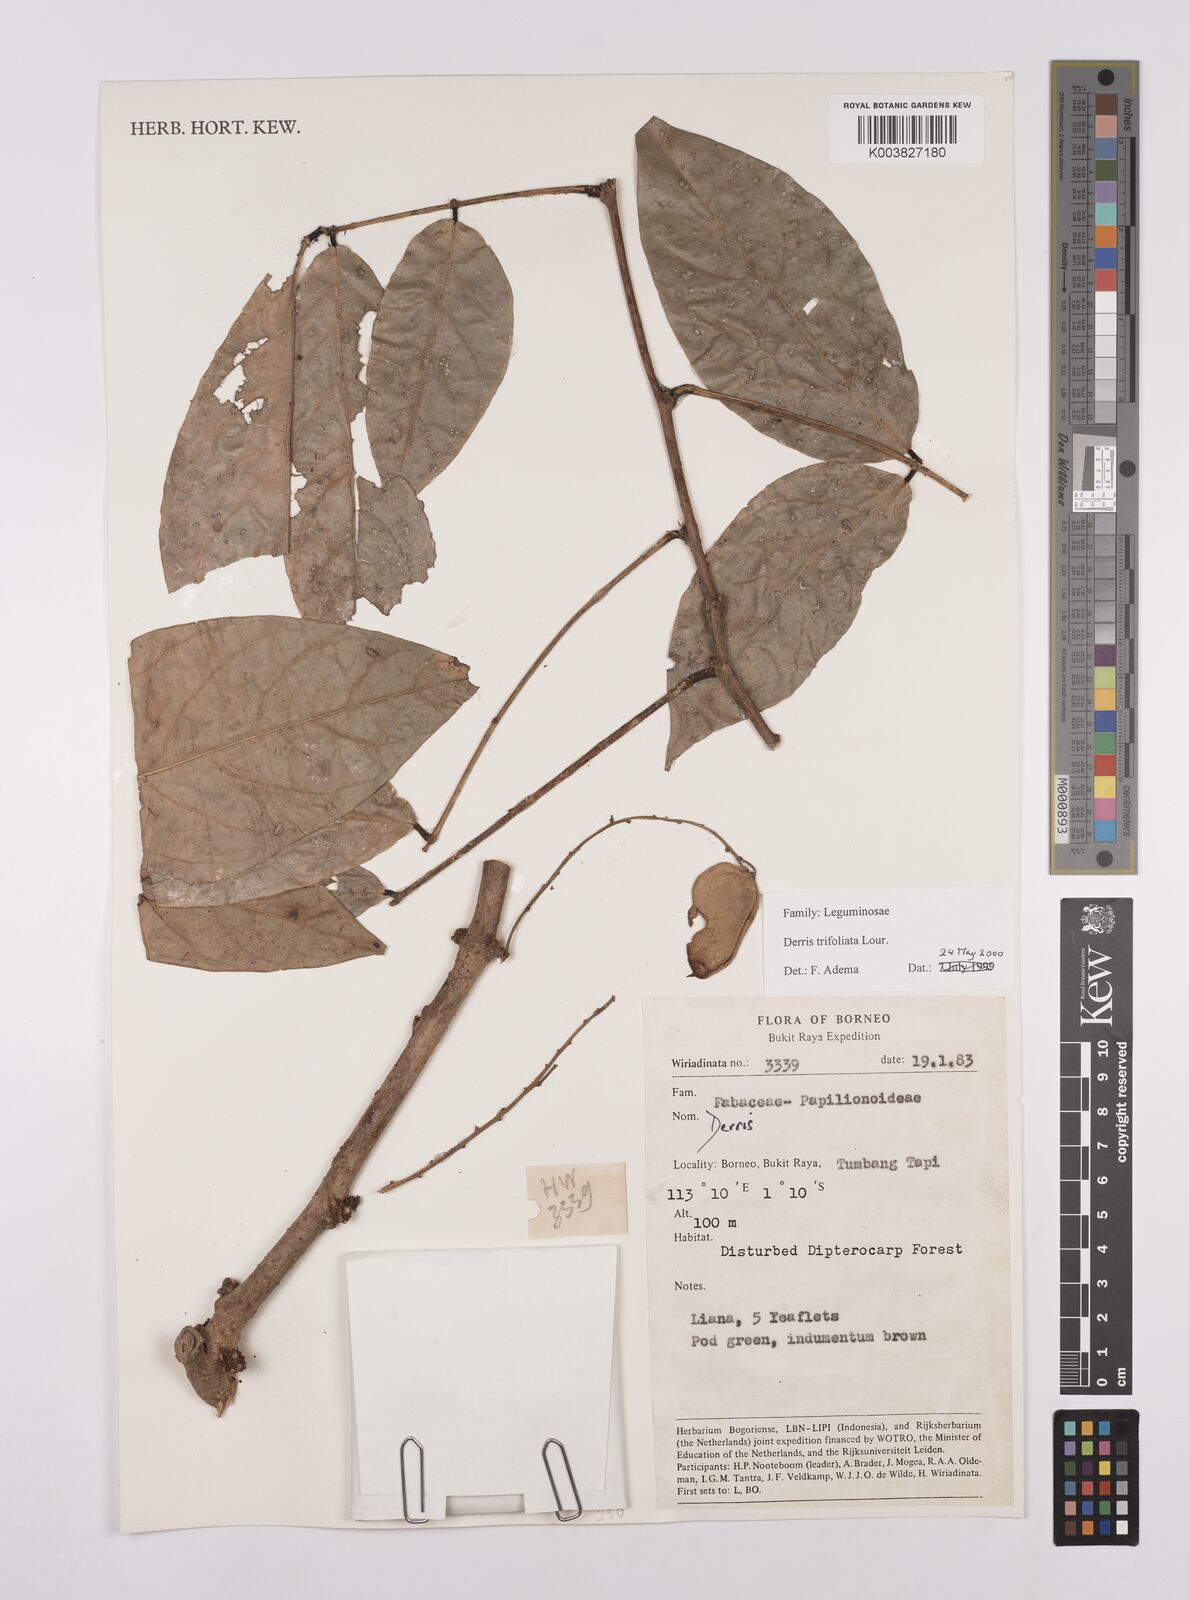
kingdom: Plantae
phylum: Tracheophyta
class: Magnoliopsida
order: Fabales
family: Fabaceae
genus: Derris
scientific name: Derris trifoliata
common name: Three-leaf derris
